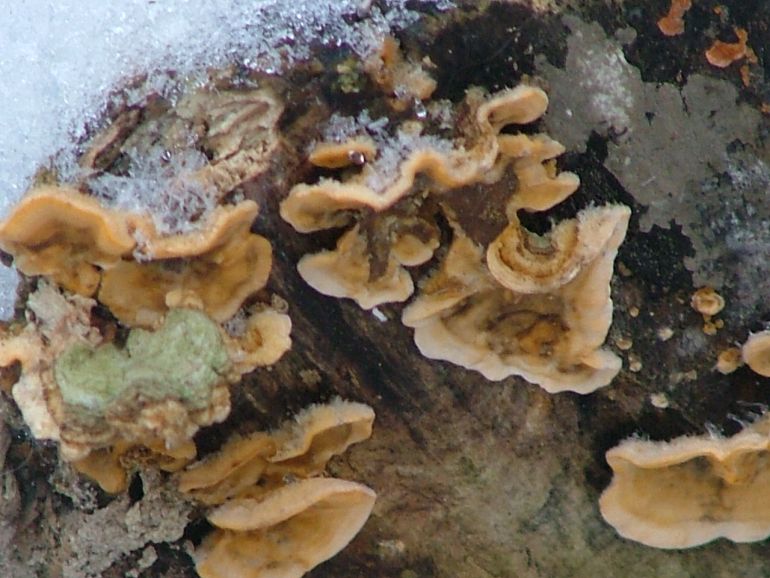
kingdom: Fungi
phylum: Basidiomycota
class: Agaricomycetes
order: Russulales
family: Stereaceae
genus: Stereum
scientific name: Stereum hirsutum
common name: håret lædersvamp
